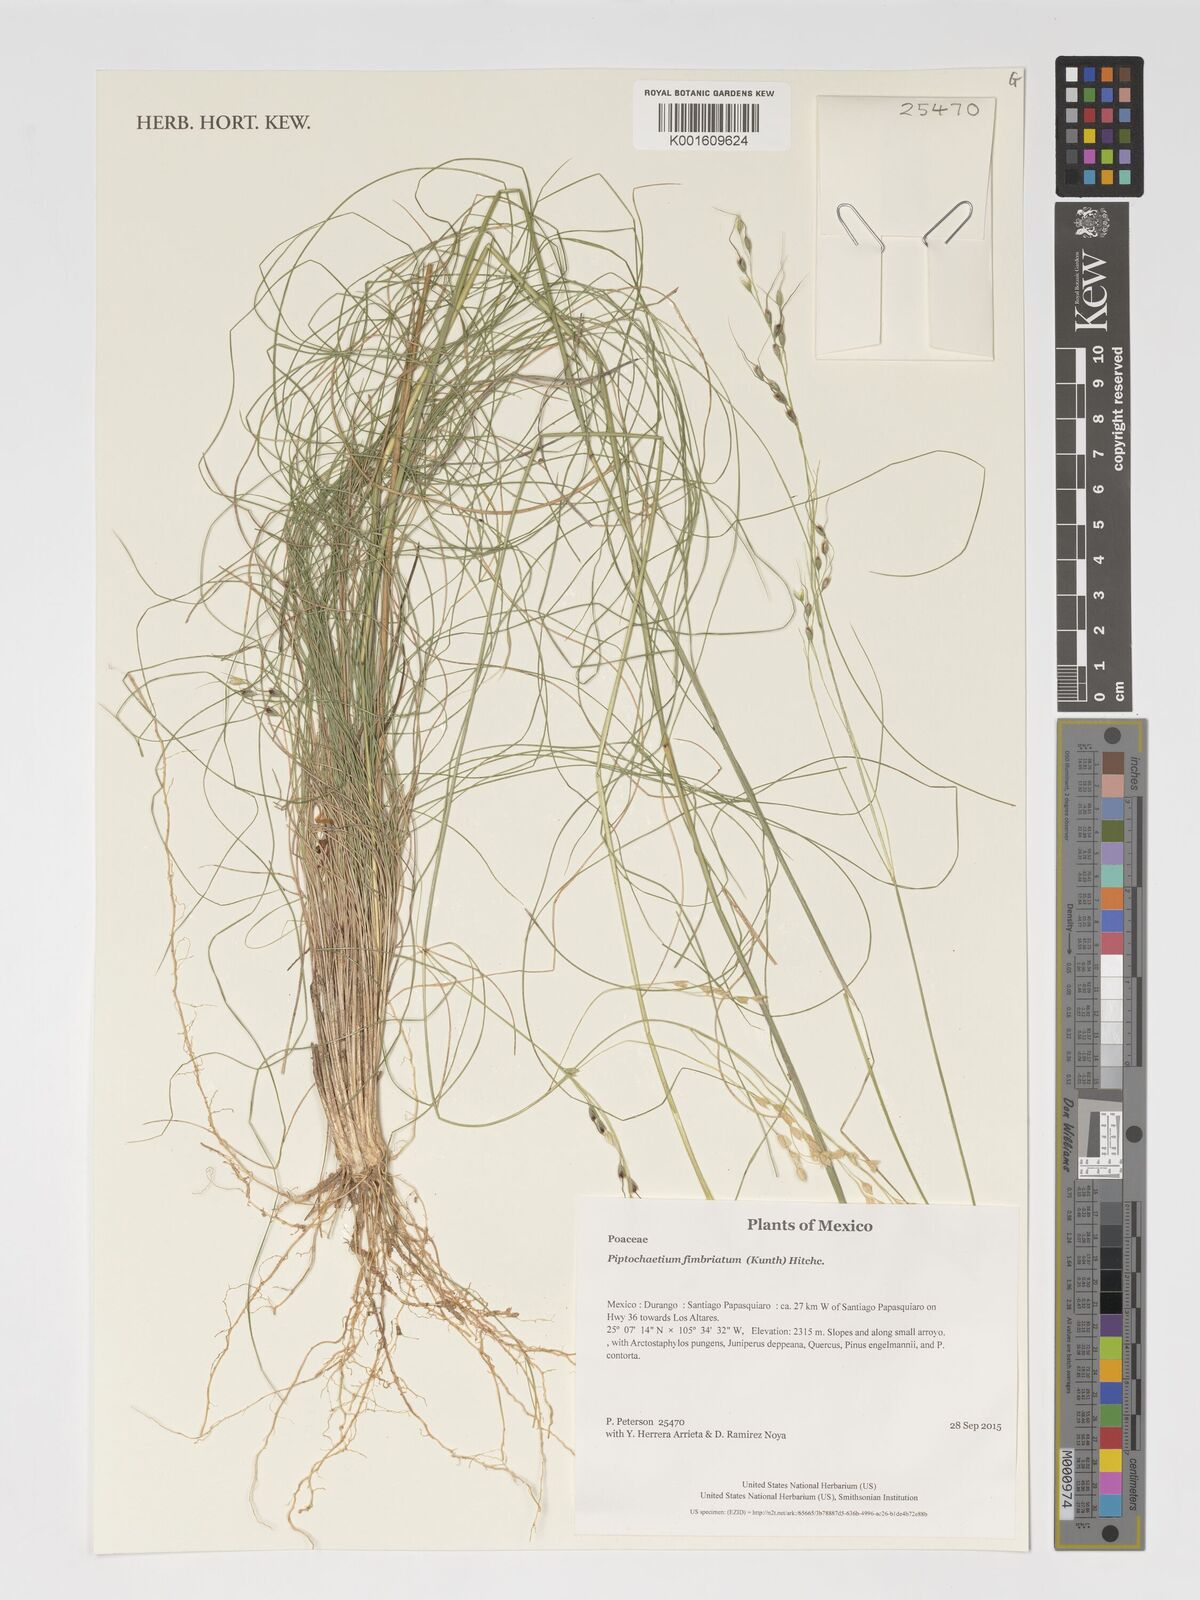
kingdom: Plantae
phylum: Tracheophyta
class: Liliopsida
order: Poales
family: Poaceae
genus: Piptochaetium
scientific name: Piptochaetium fimbriatum
